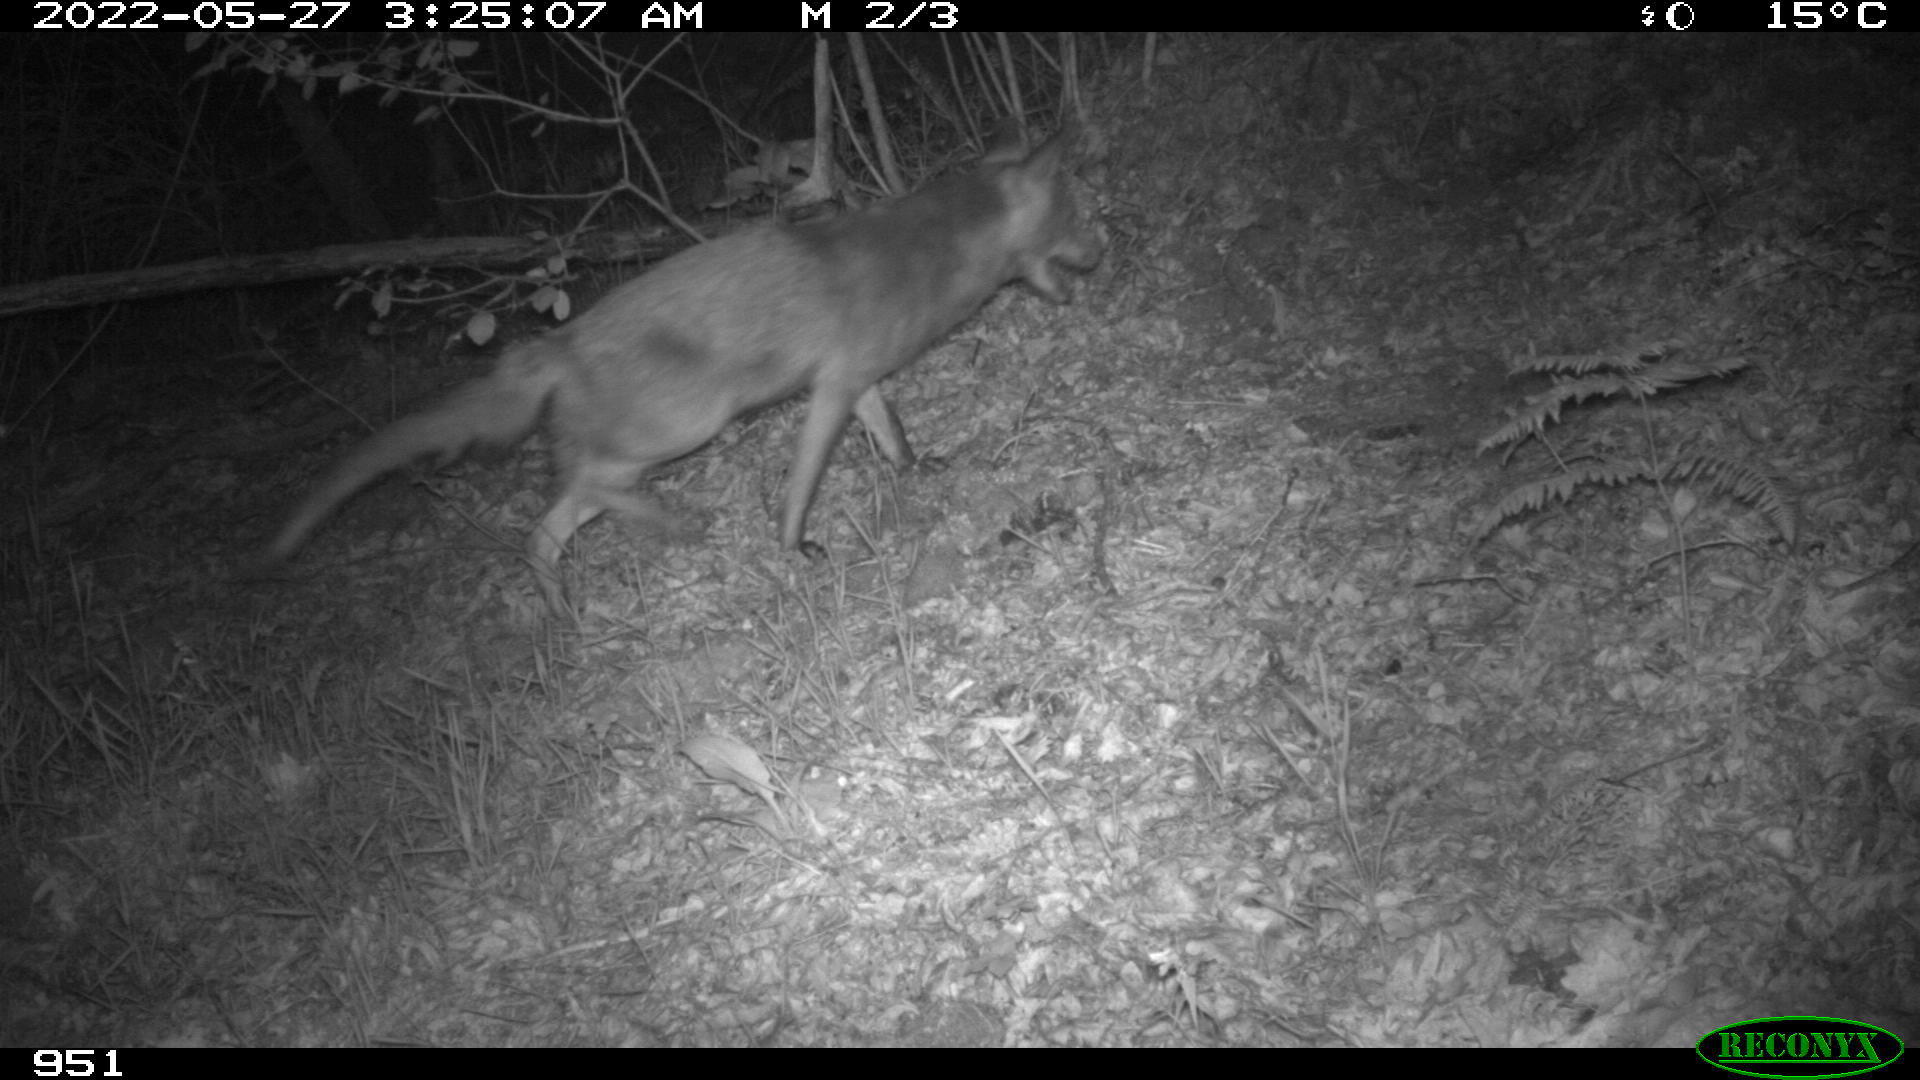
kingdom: Animalia
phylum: Chordata
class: Mammalia
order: Carnivora
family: Canidae
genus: Vulpes
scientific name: Vulpes vulpes
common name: Red fox
